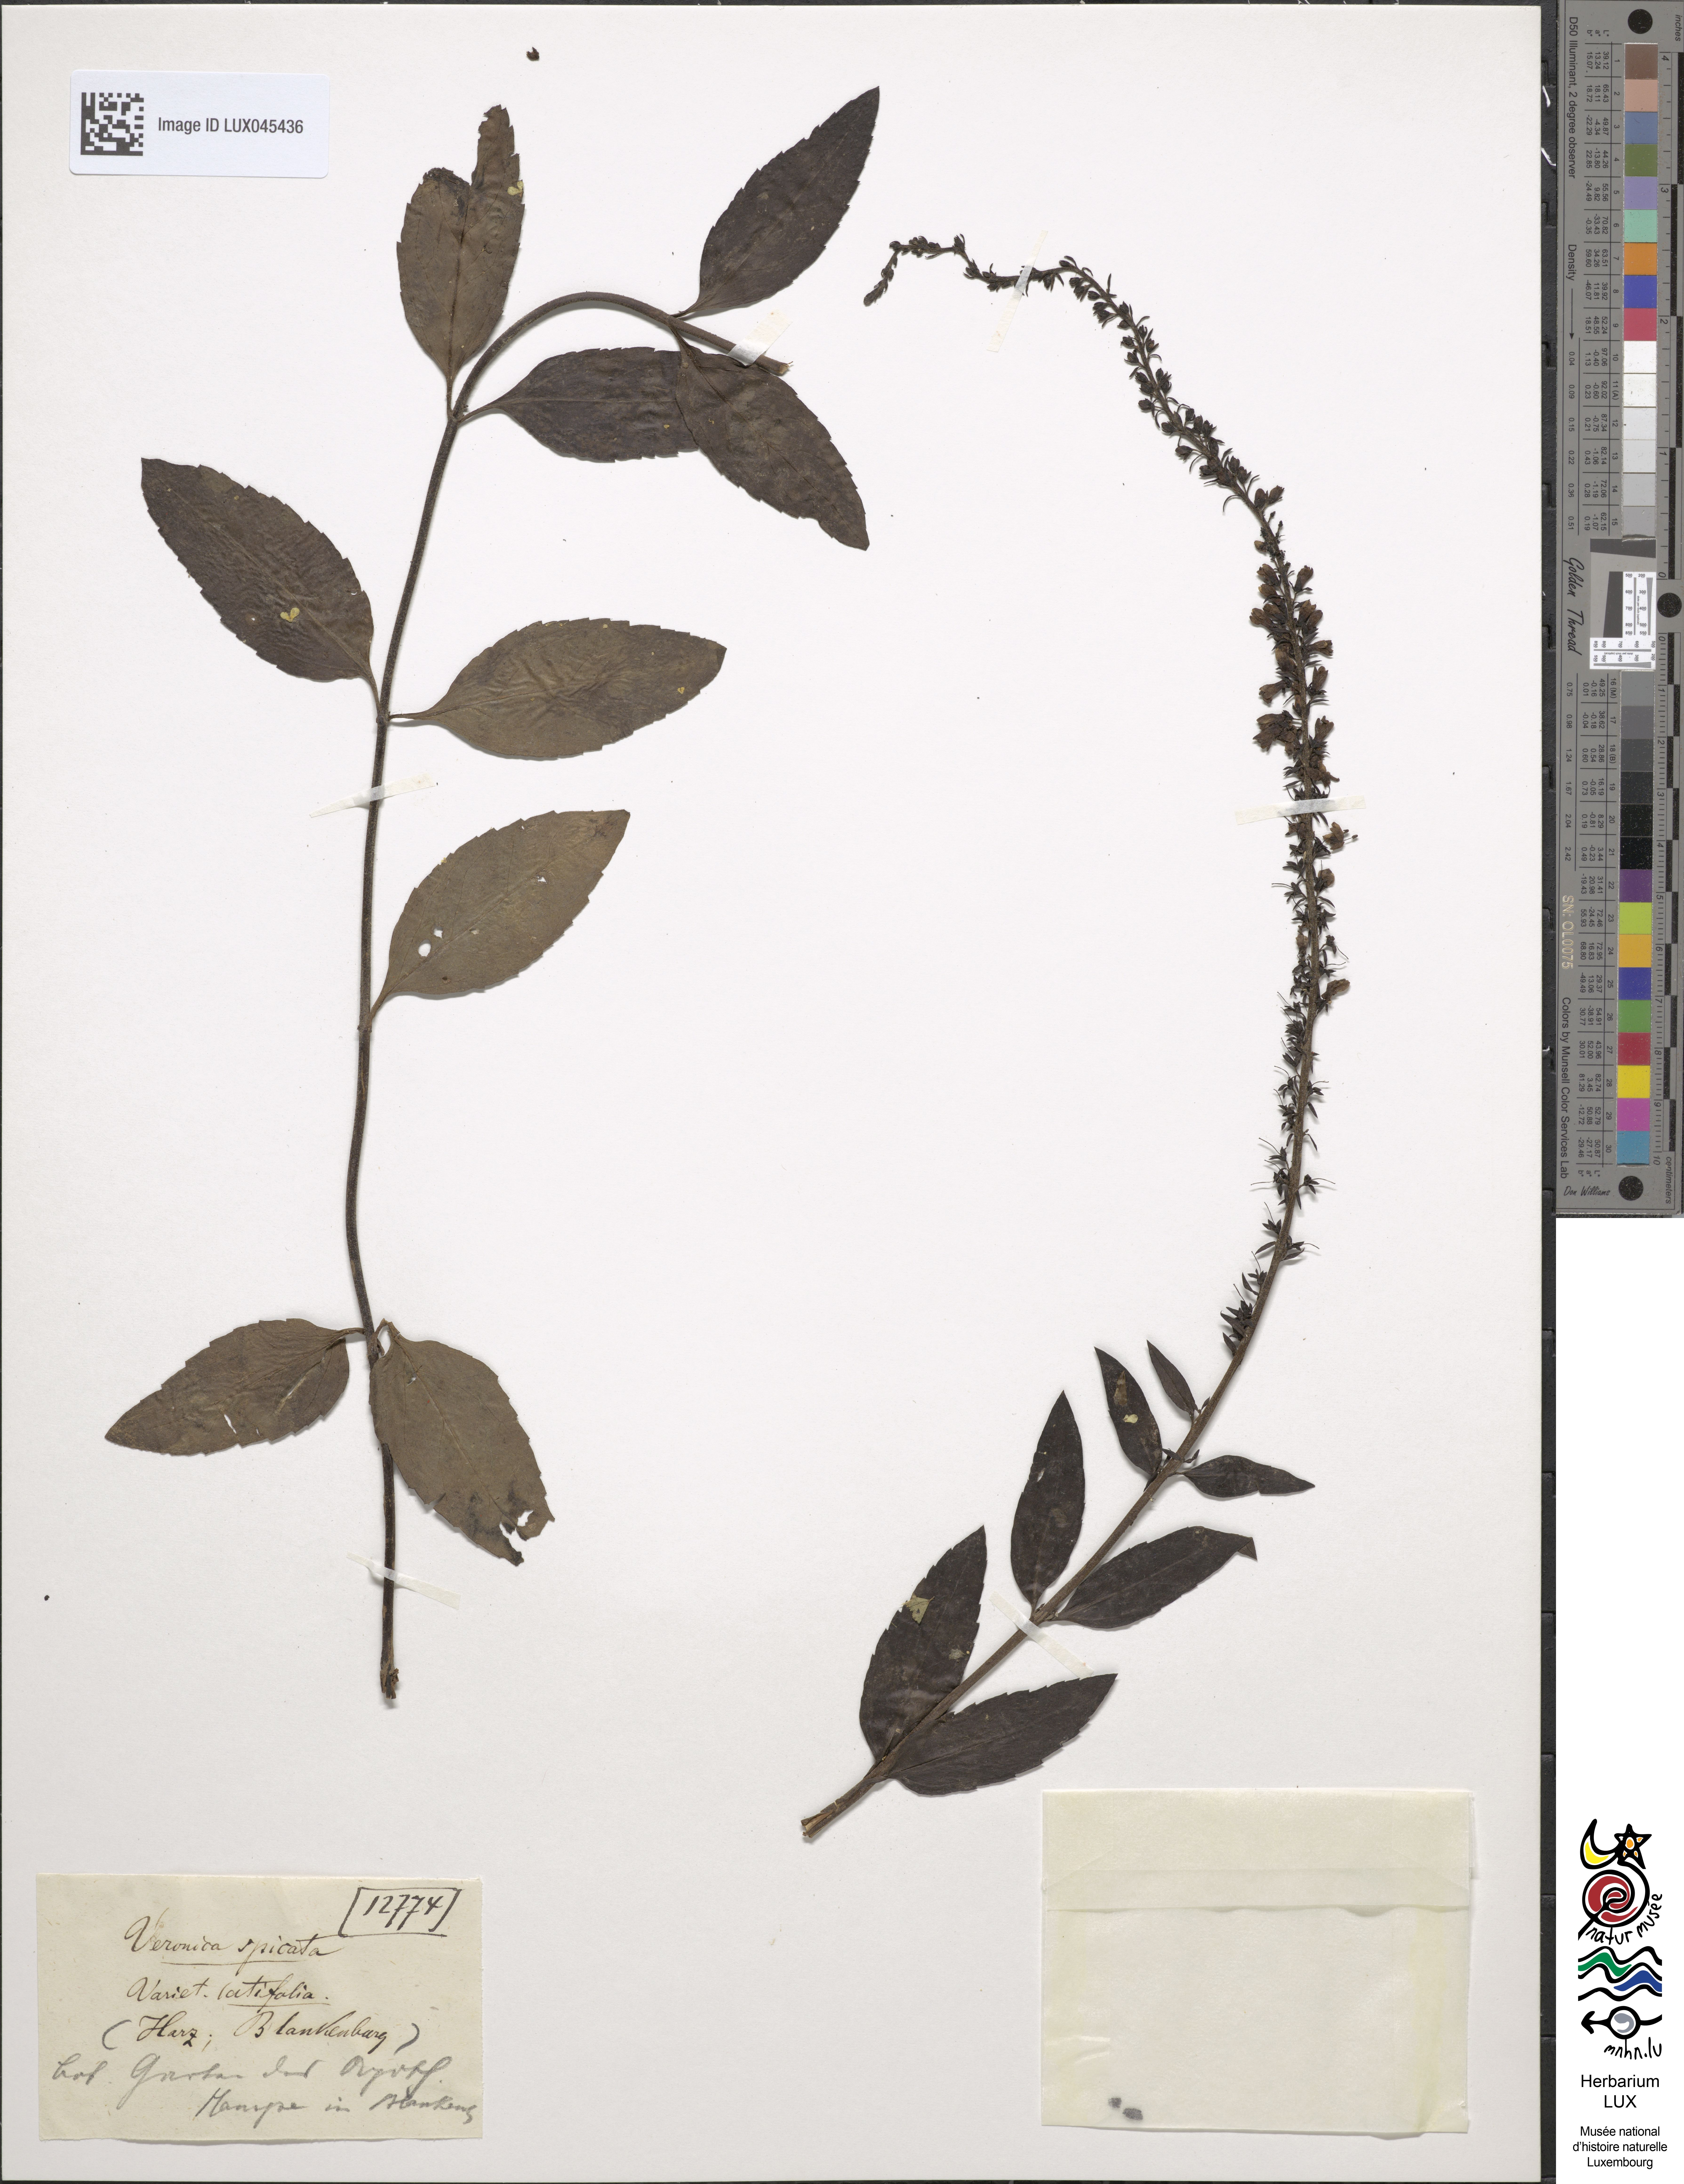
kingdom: Plantae
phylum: Tracheophyta
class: Magnoliopsida
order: Lamiales
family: Plantaginaceae
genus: Veronica
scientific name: Veronica spicata
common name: Spiked speedwell
